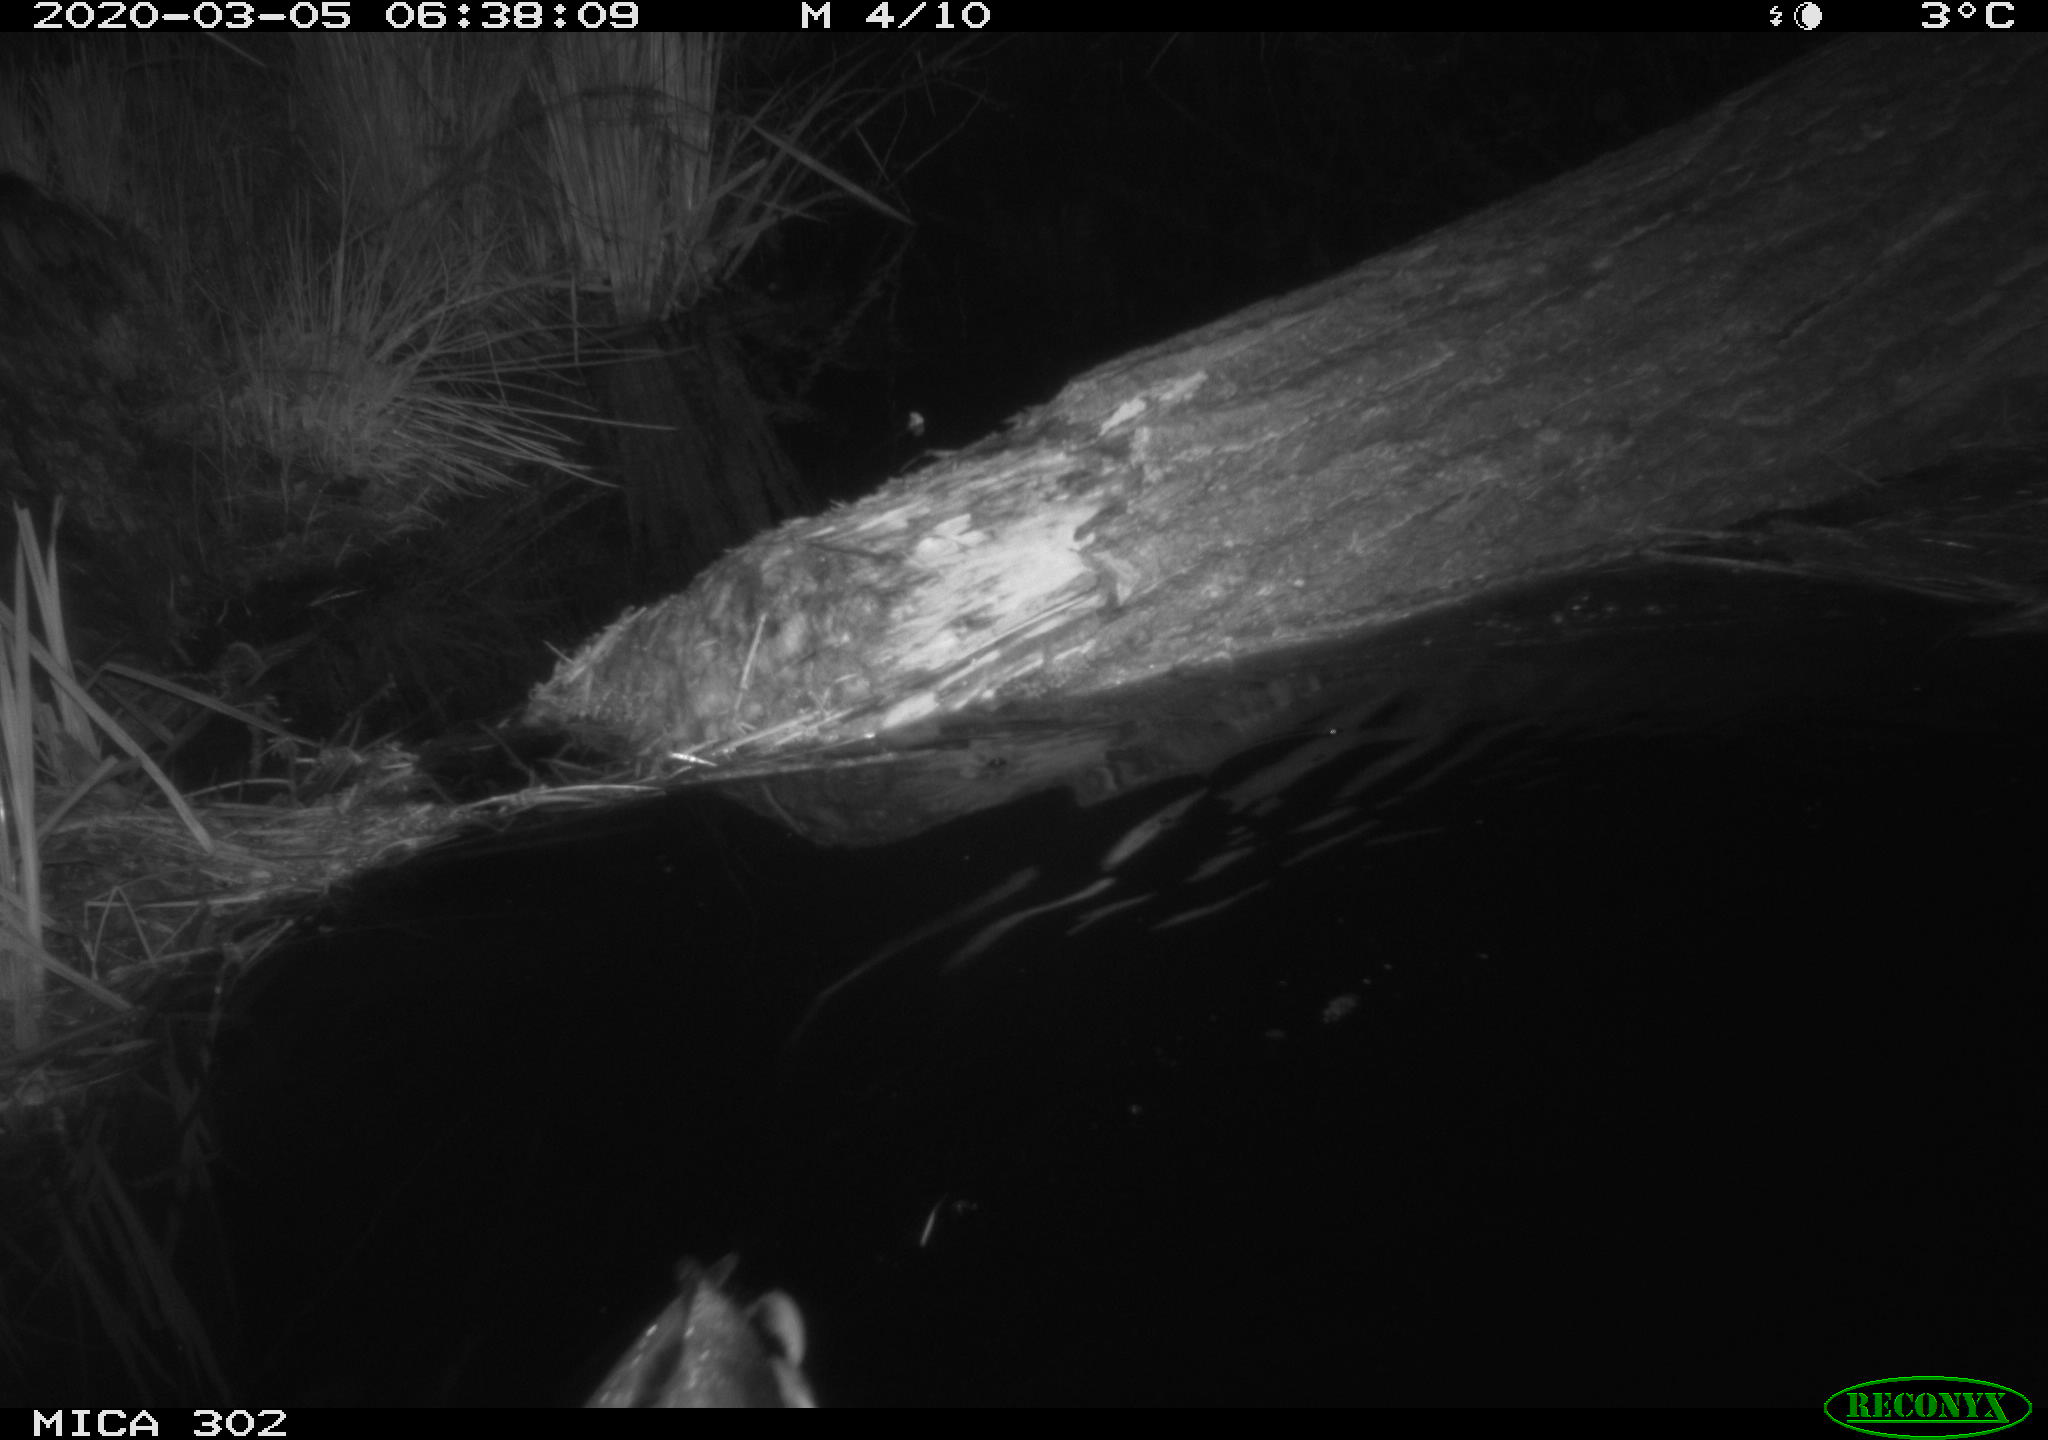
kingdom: Animalia
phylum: Chordata
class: Aves
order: Anseriformes
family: Anatidae
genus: Anas
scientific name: Anas platyrhynchos
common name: Mallard
